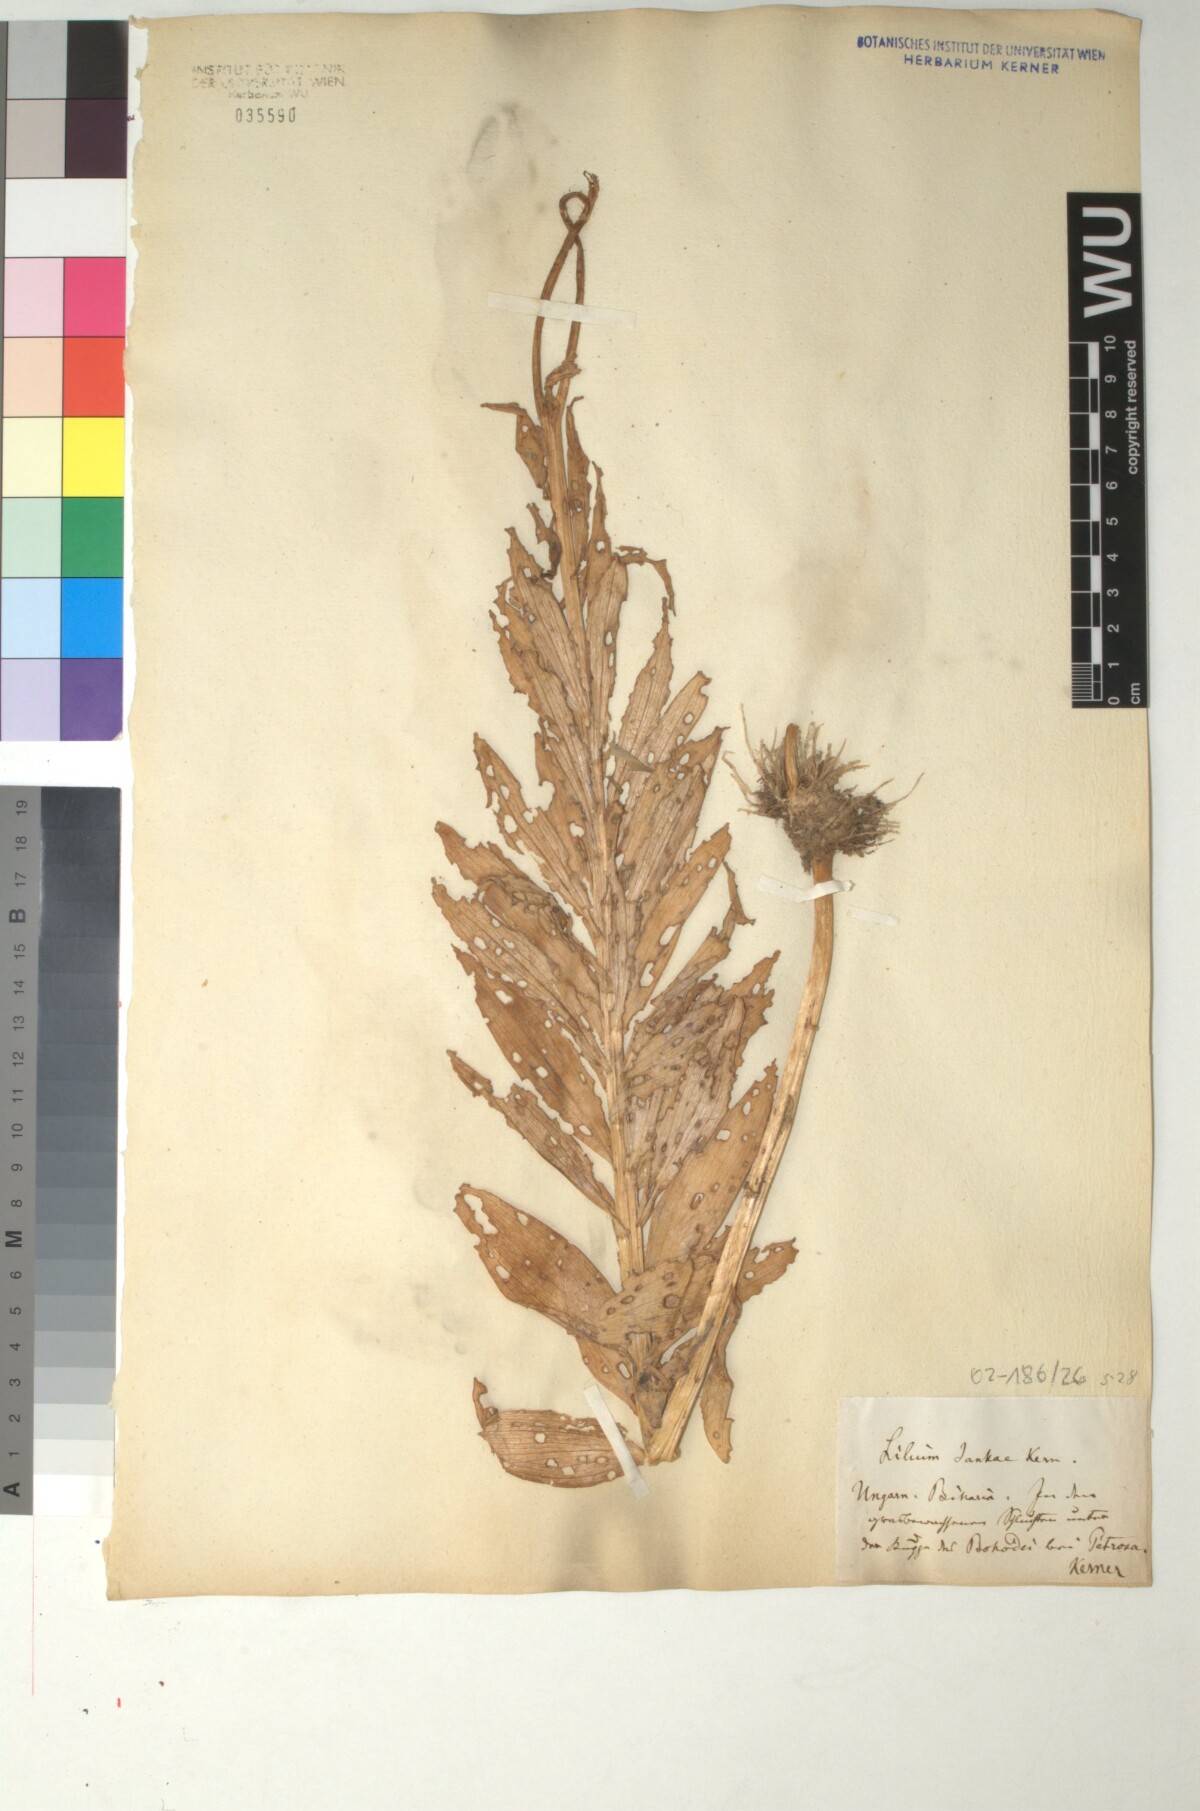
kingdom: Plantae
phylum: Tracheophyta
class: Liliopsida
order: Liliales
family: Liliaceae
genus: Lilium
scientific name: Lilium jankae
